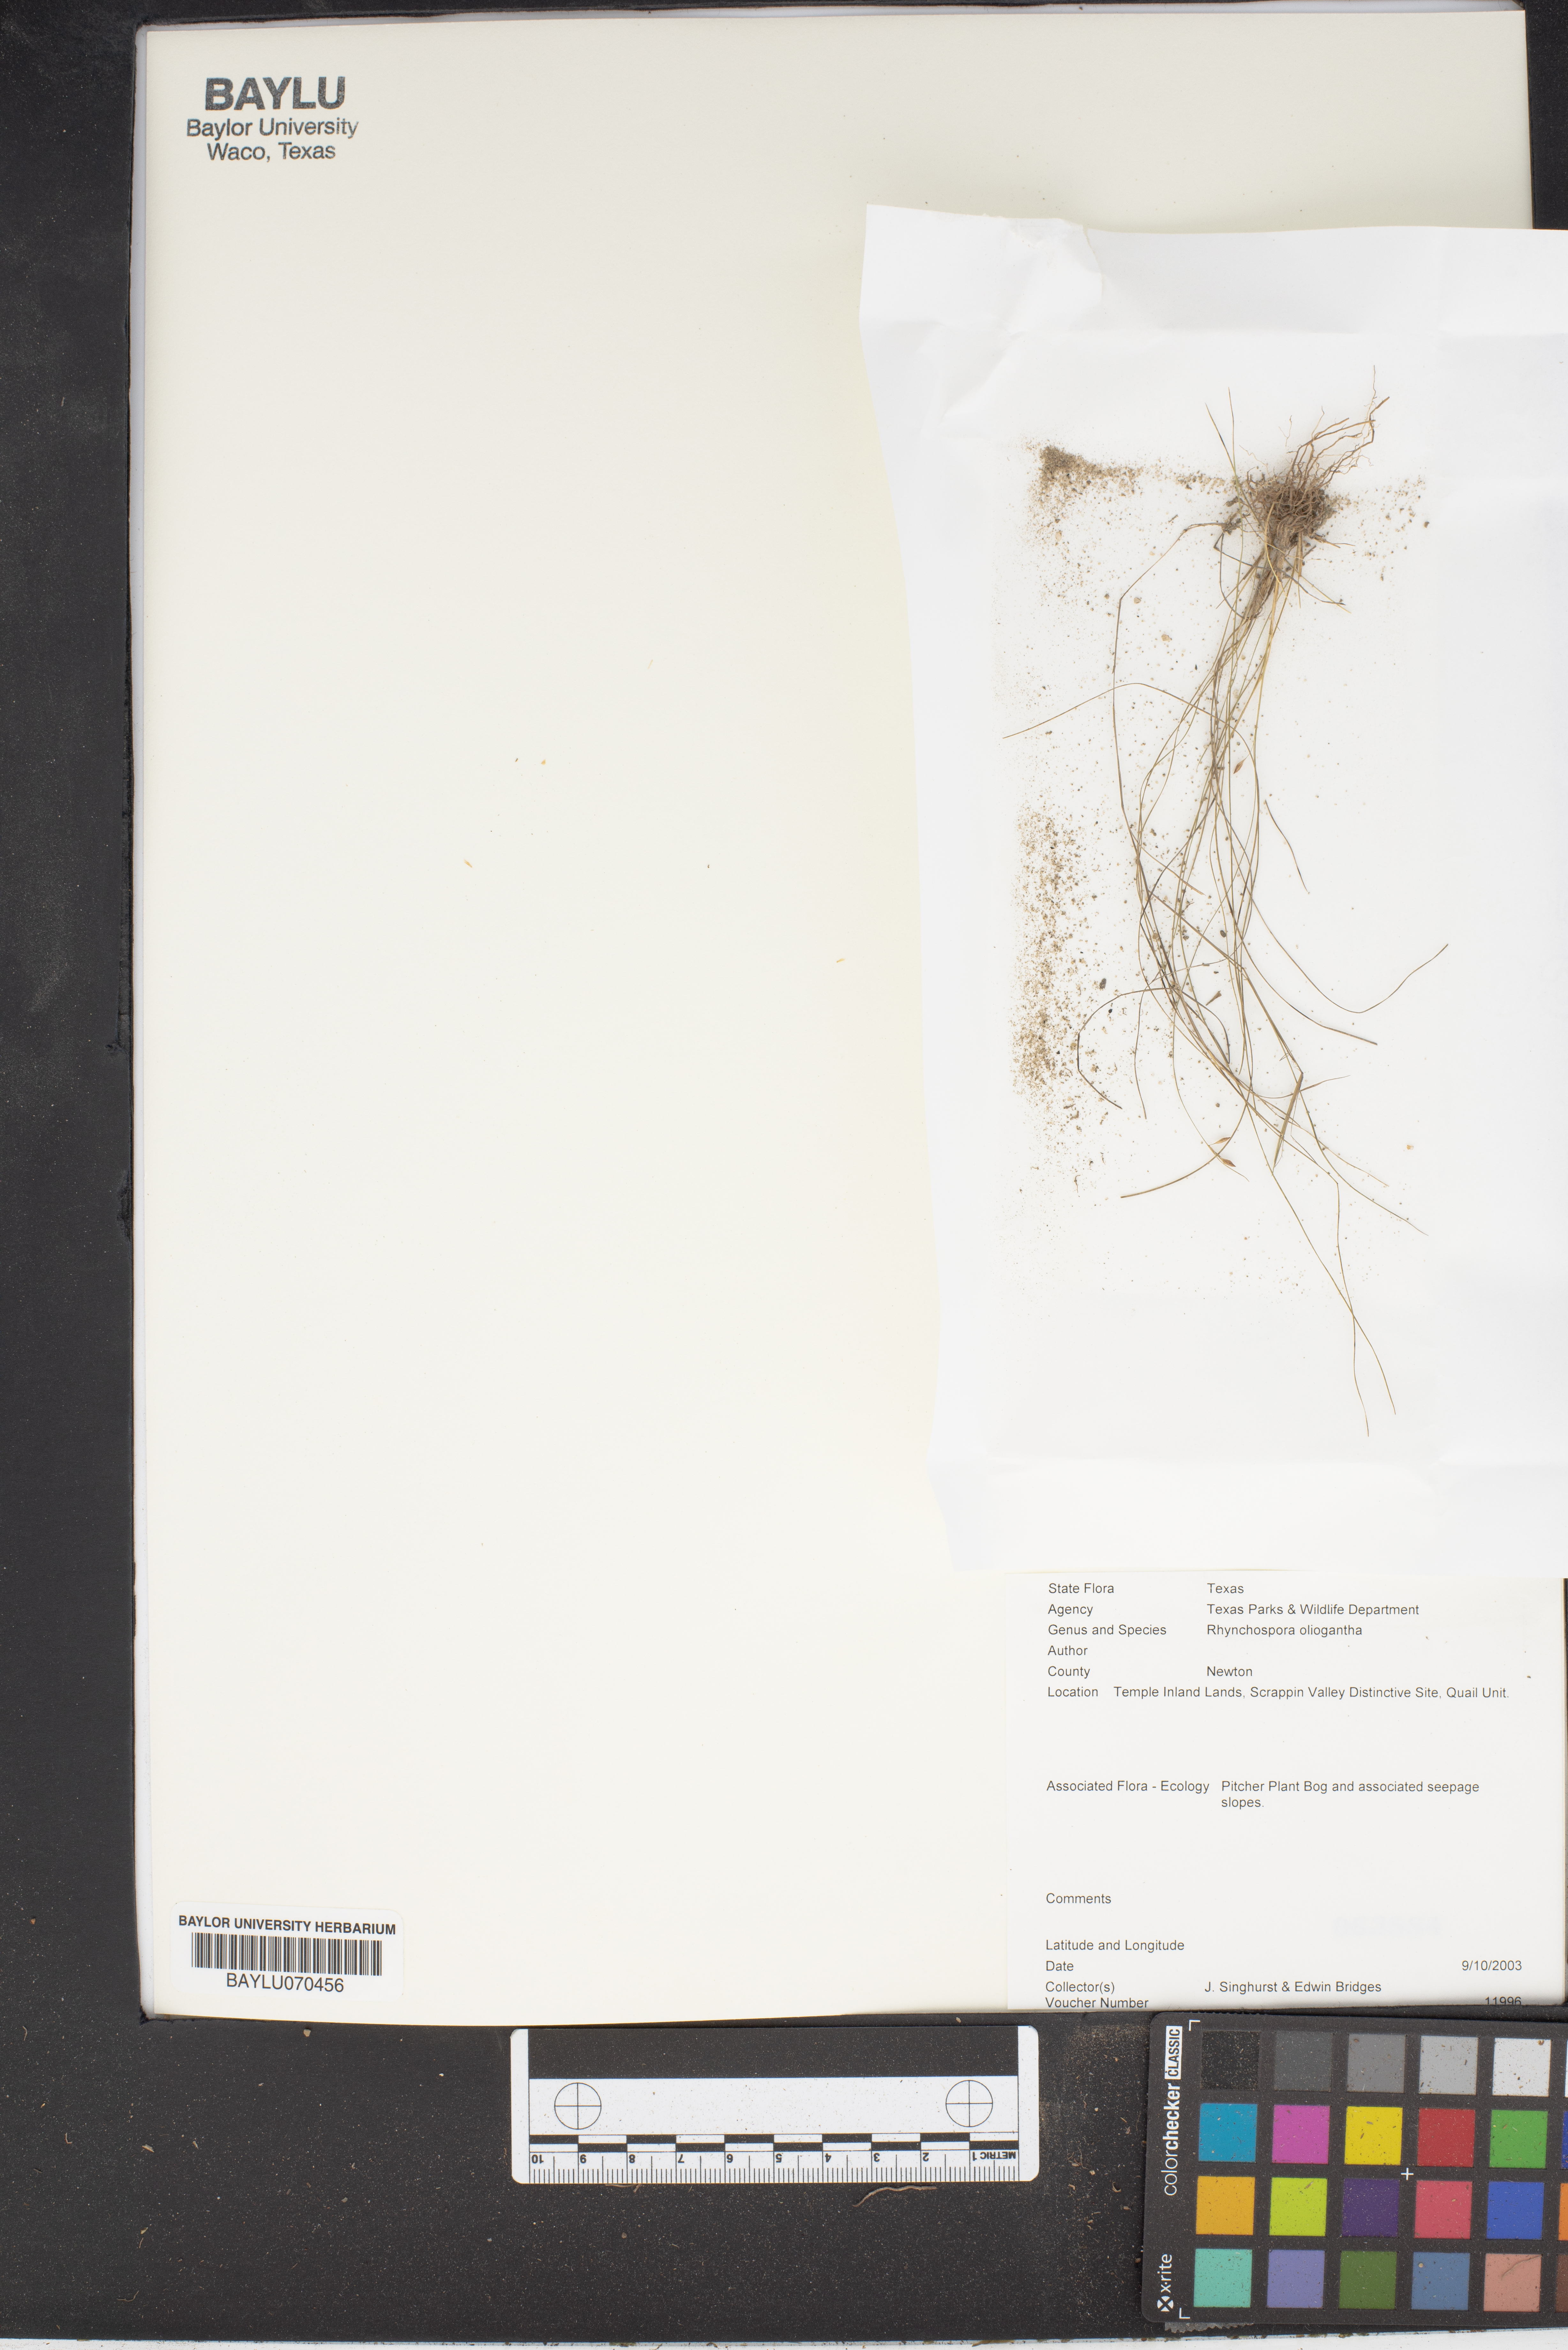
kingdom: Plantae
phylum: Tracheophyta
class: Liliopsida
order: Poales
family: Cyperaceae
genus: Rhynchospora
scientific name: Rhynchospora oligantha
